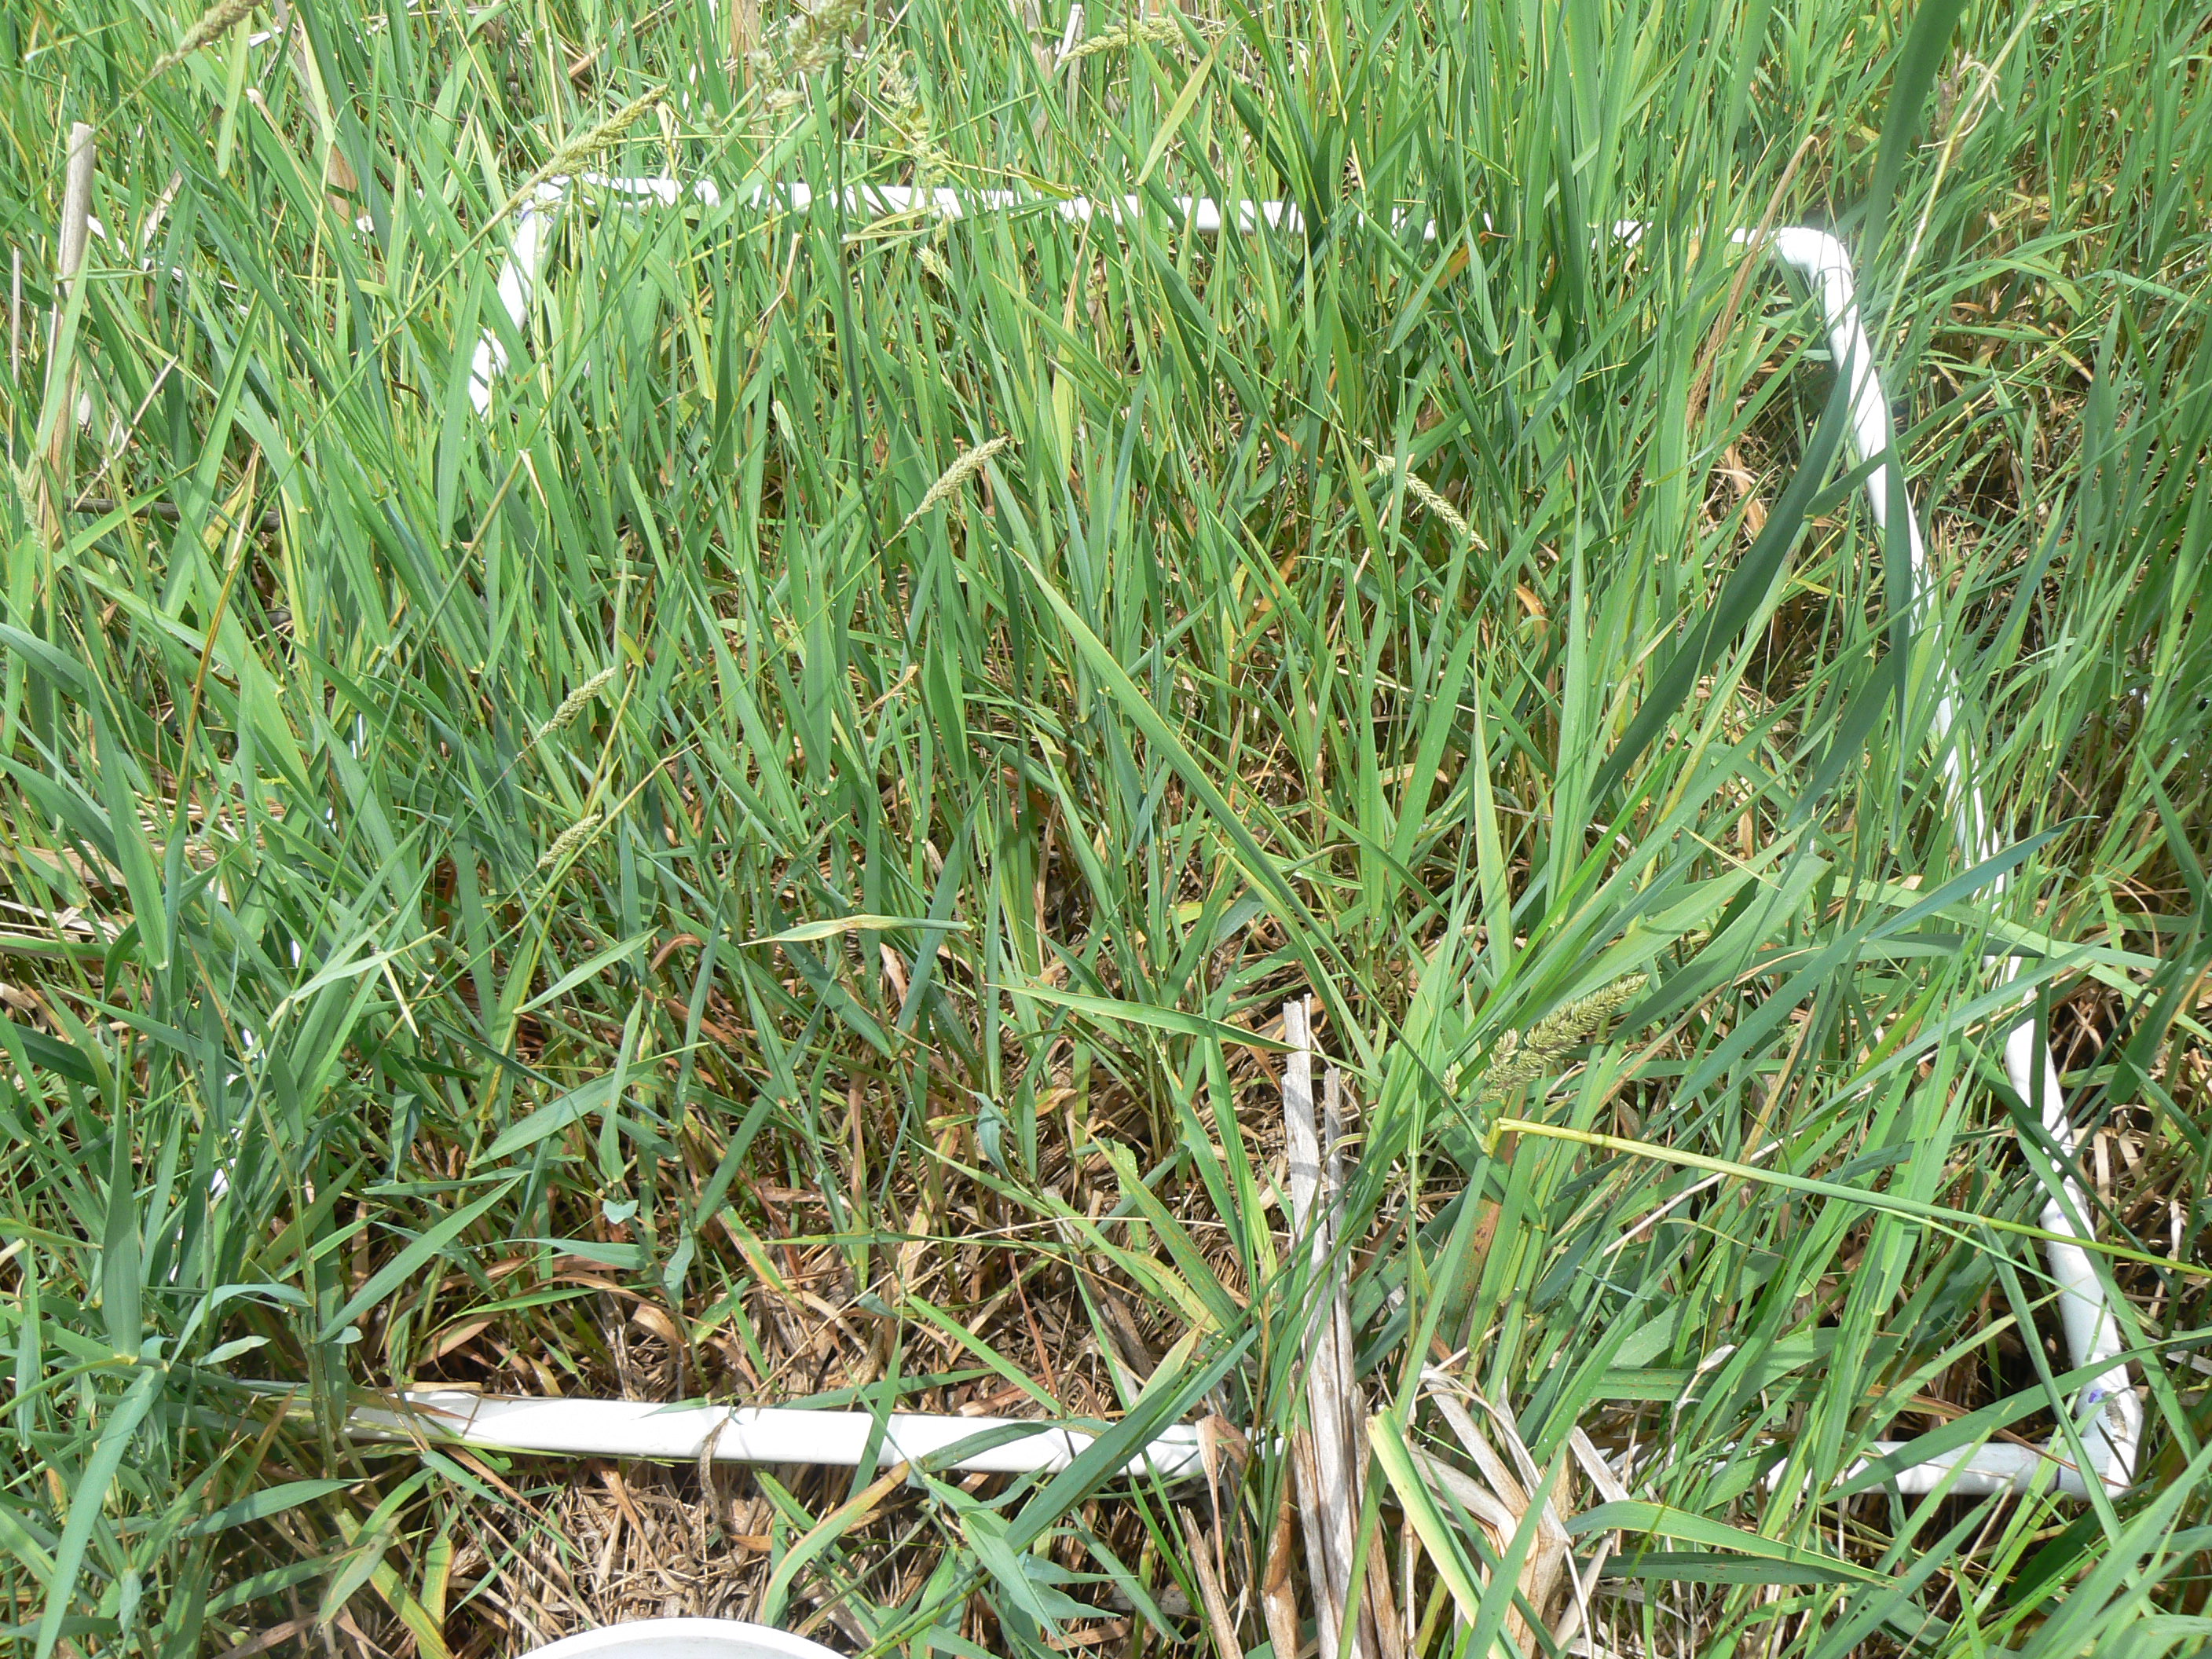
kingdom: Plantae
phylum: Tracheophyta
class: Liliopsida
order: Poales
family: Poaceae
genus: Calamagrostis
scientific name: Calamagrostis canadensis
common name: Canada bluejoint
